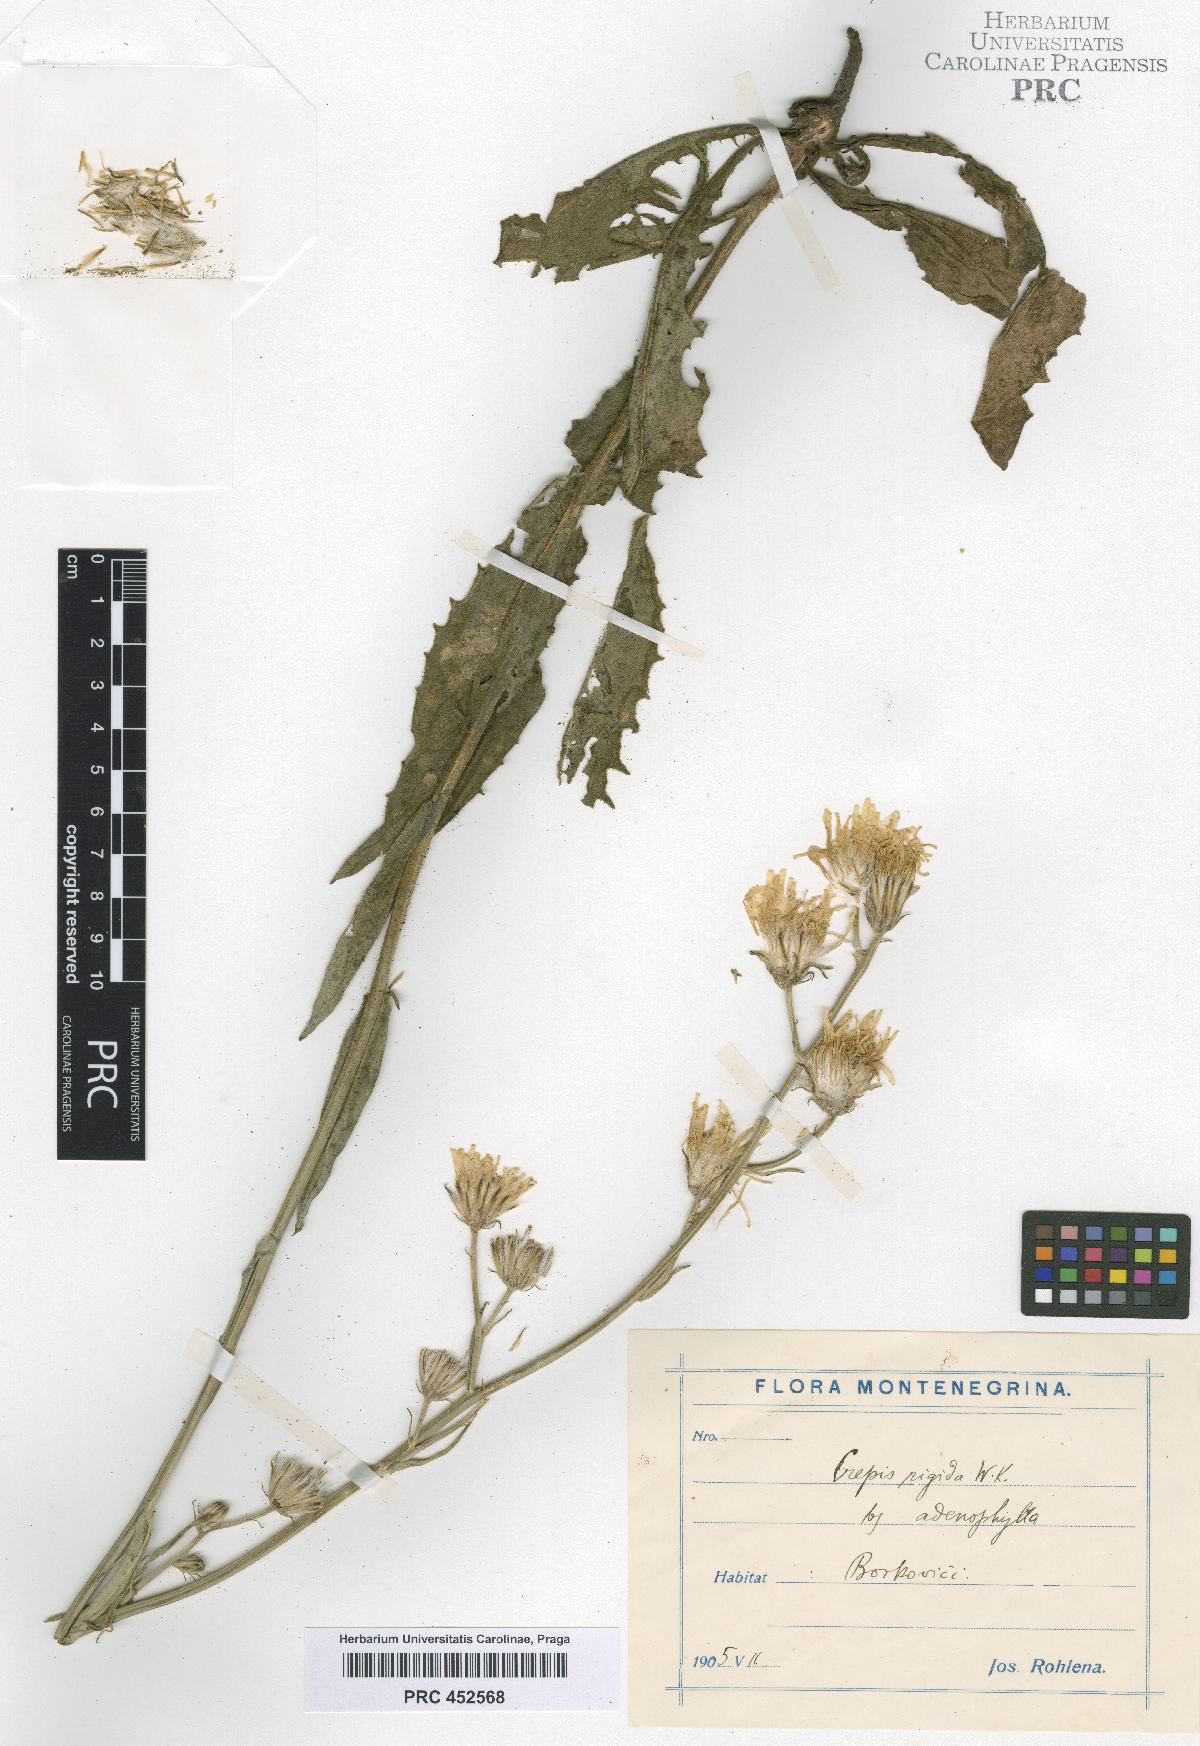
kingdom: Plantae
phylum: Tracheophyta
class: Magnoliopsida
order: Asterales
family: Asteraceae
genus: Crepis
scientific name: Crepis pannonica
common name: Pasture hawksbeard
